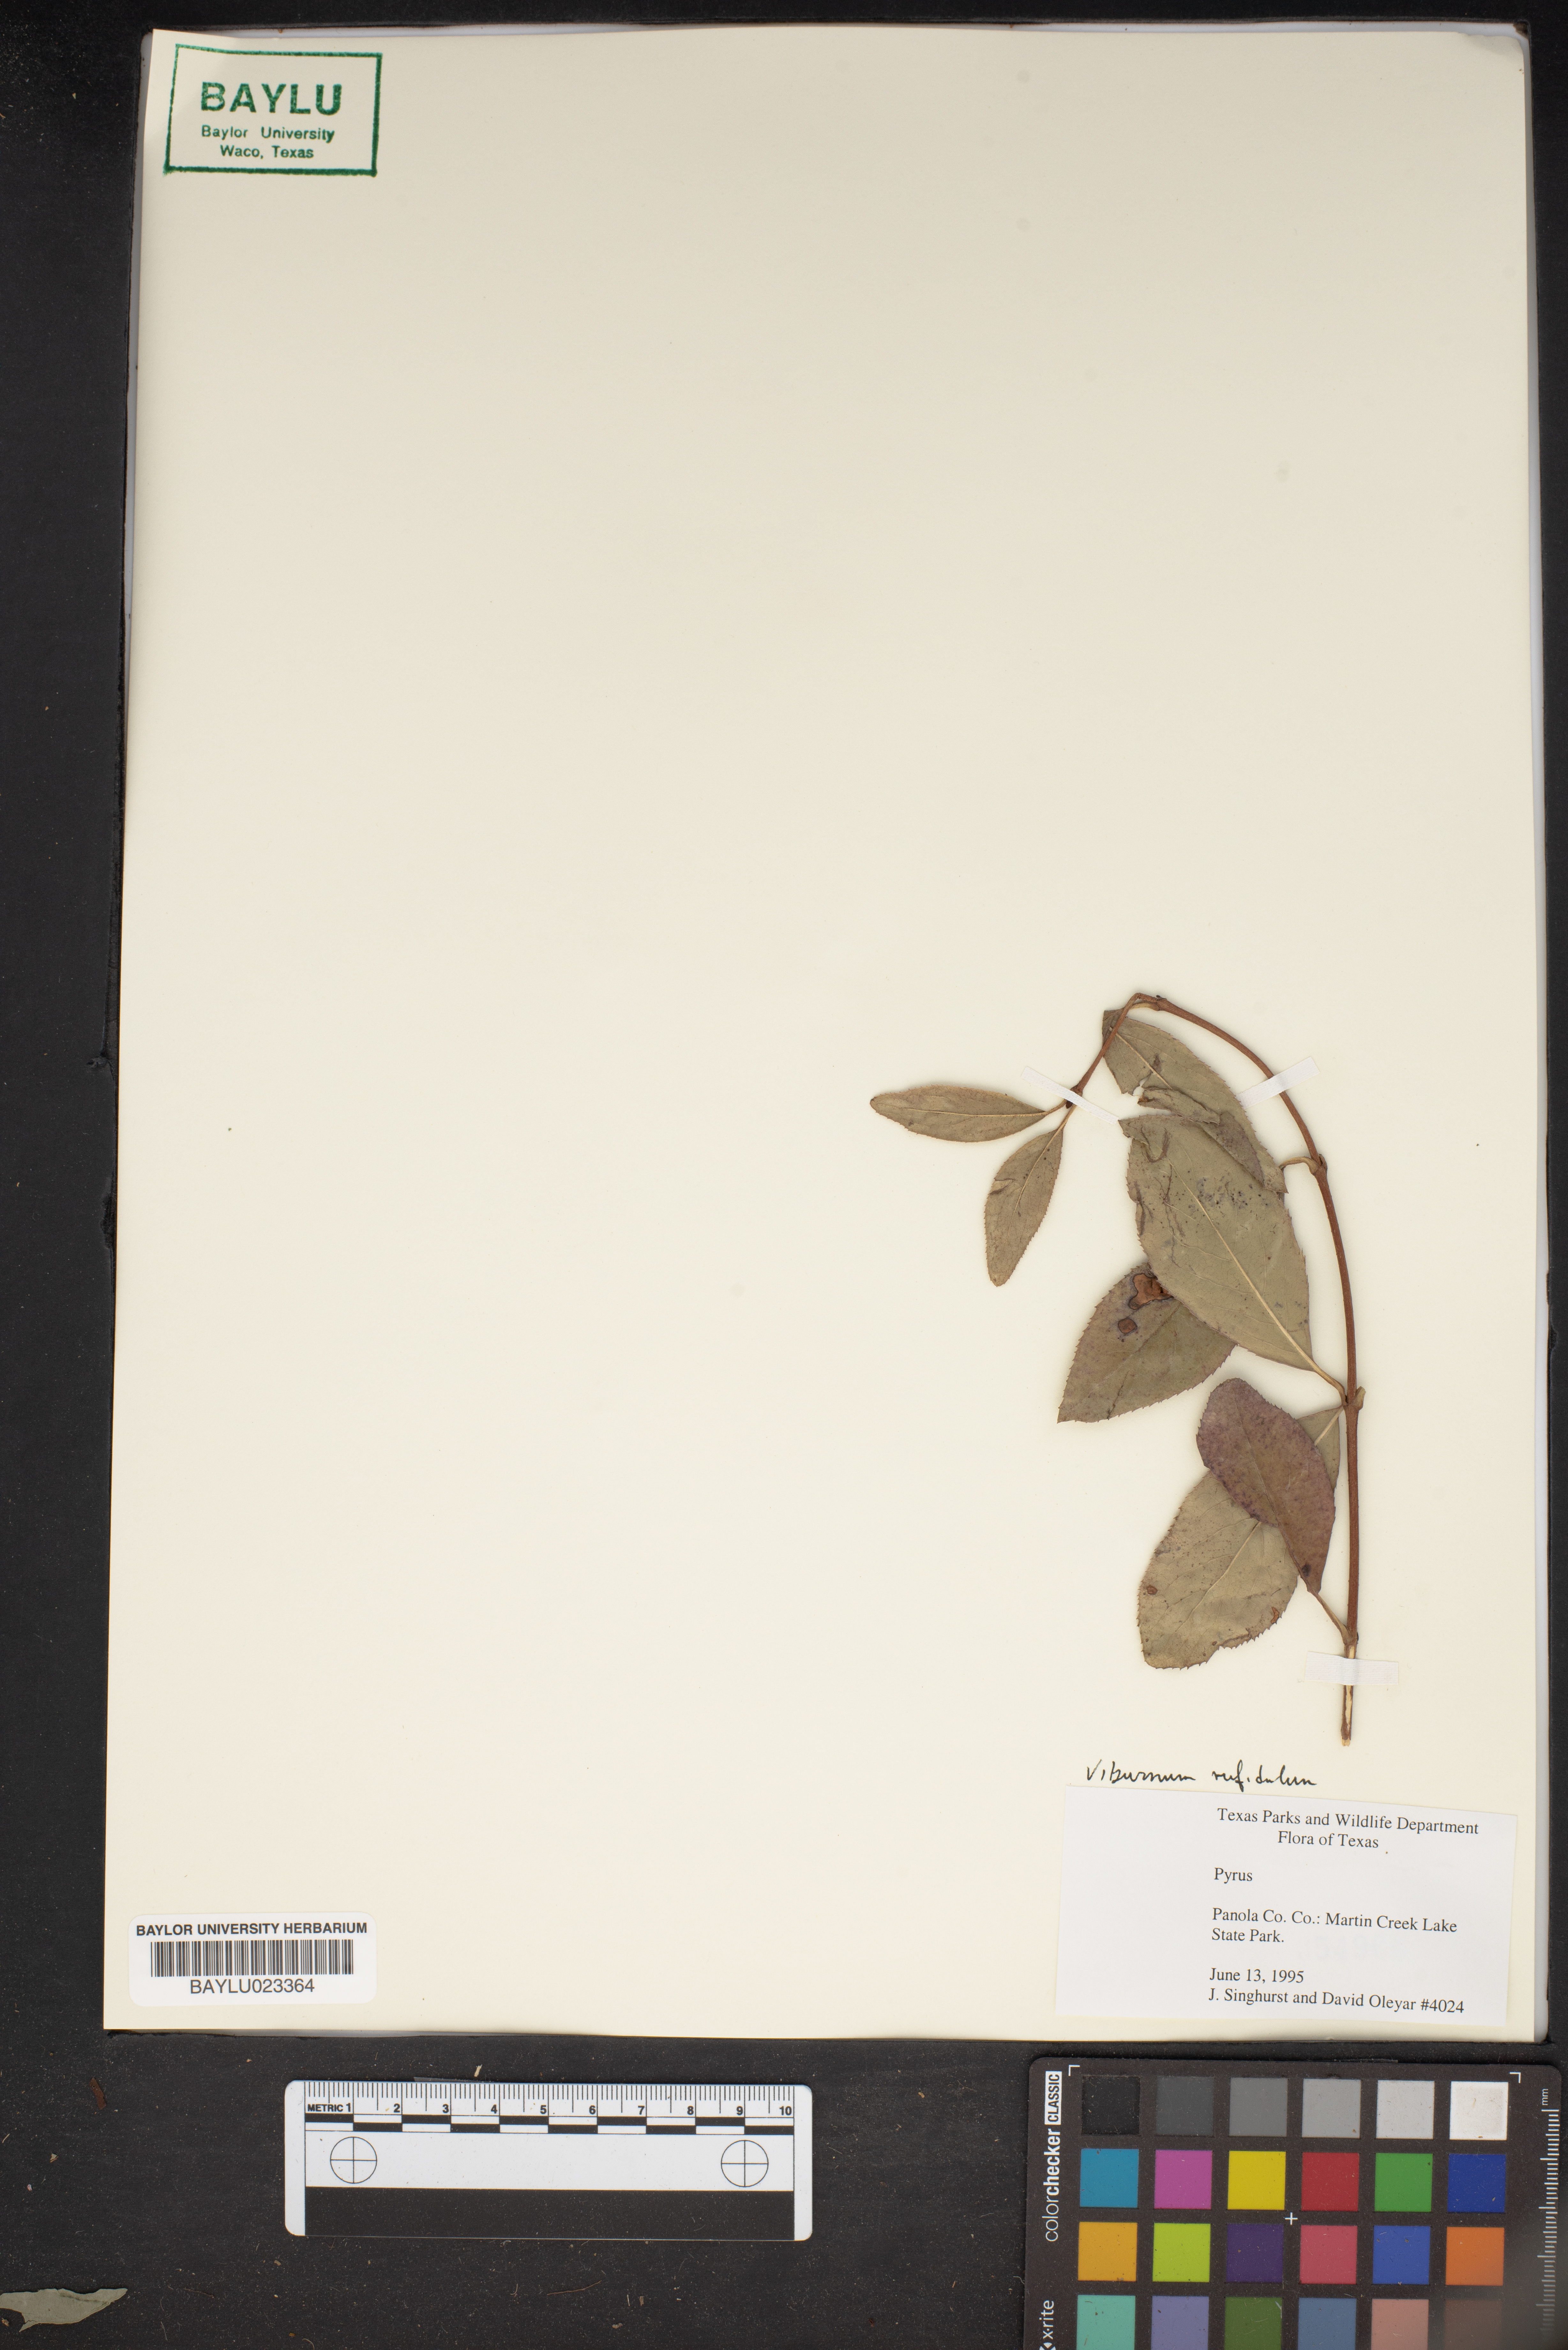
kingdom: Plantae
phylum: Tracheophyta
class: Magnoliopsida
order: Rosales
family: Rosaceae
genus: Pyrus
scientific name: Pyrus
